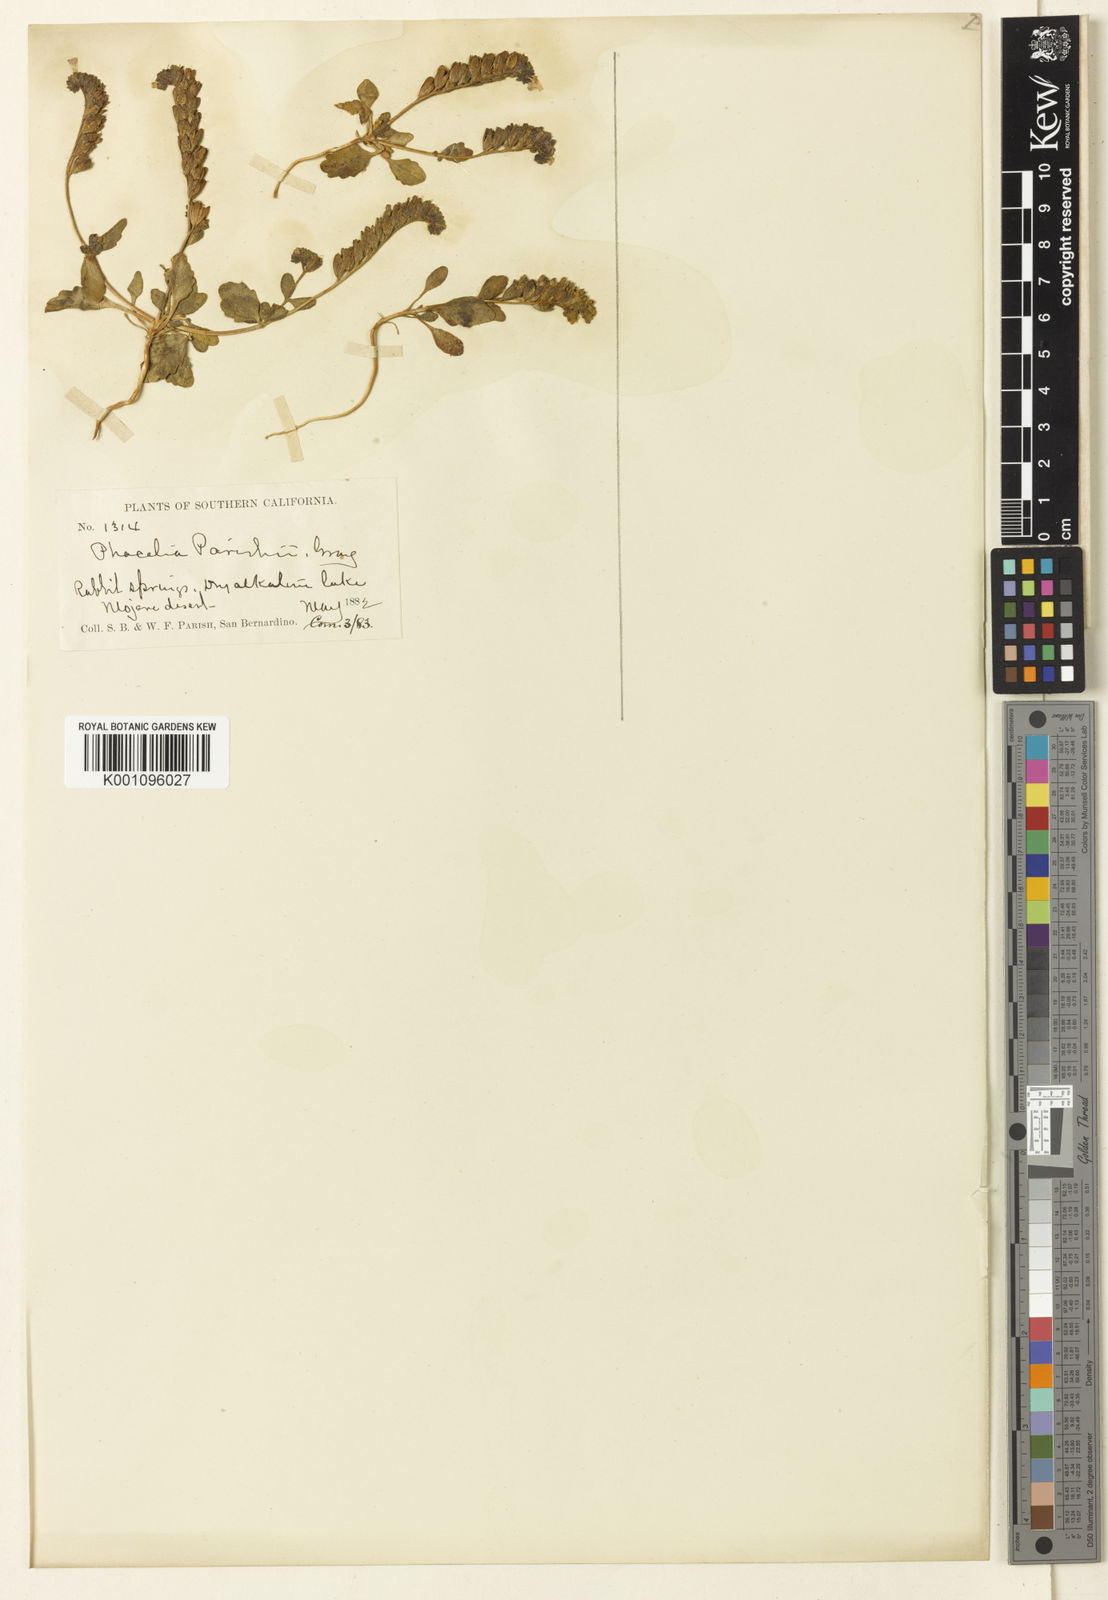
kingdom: Plantae
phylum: Tracheophyta
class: Magnoliopsida
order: Boraginales
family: Hydrophyllaceae
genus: Phacelia
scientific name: Phacelia parishii
